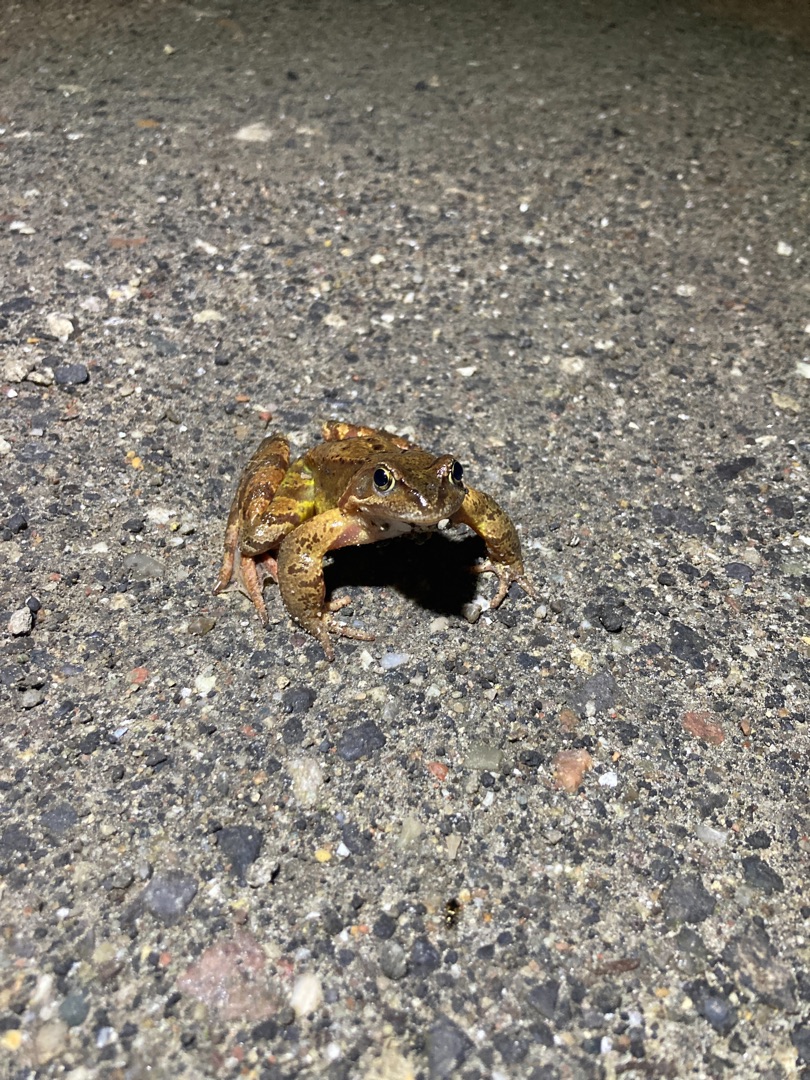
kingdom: Animalia
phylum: Chordata
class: Amphibia
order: Anura
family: Ranidae
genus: Rana
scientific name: Rana temporaria
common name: Butsnudet frø
